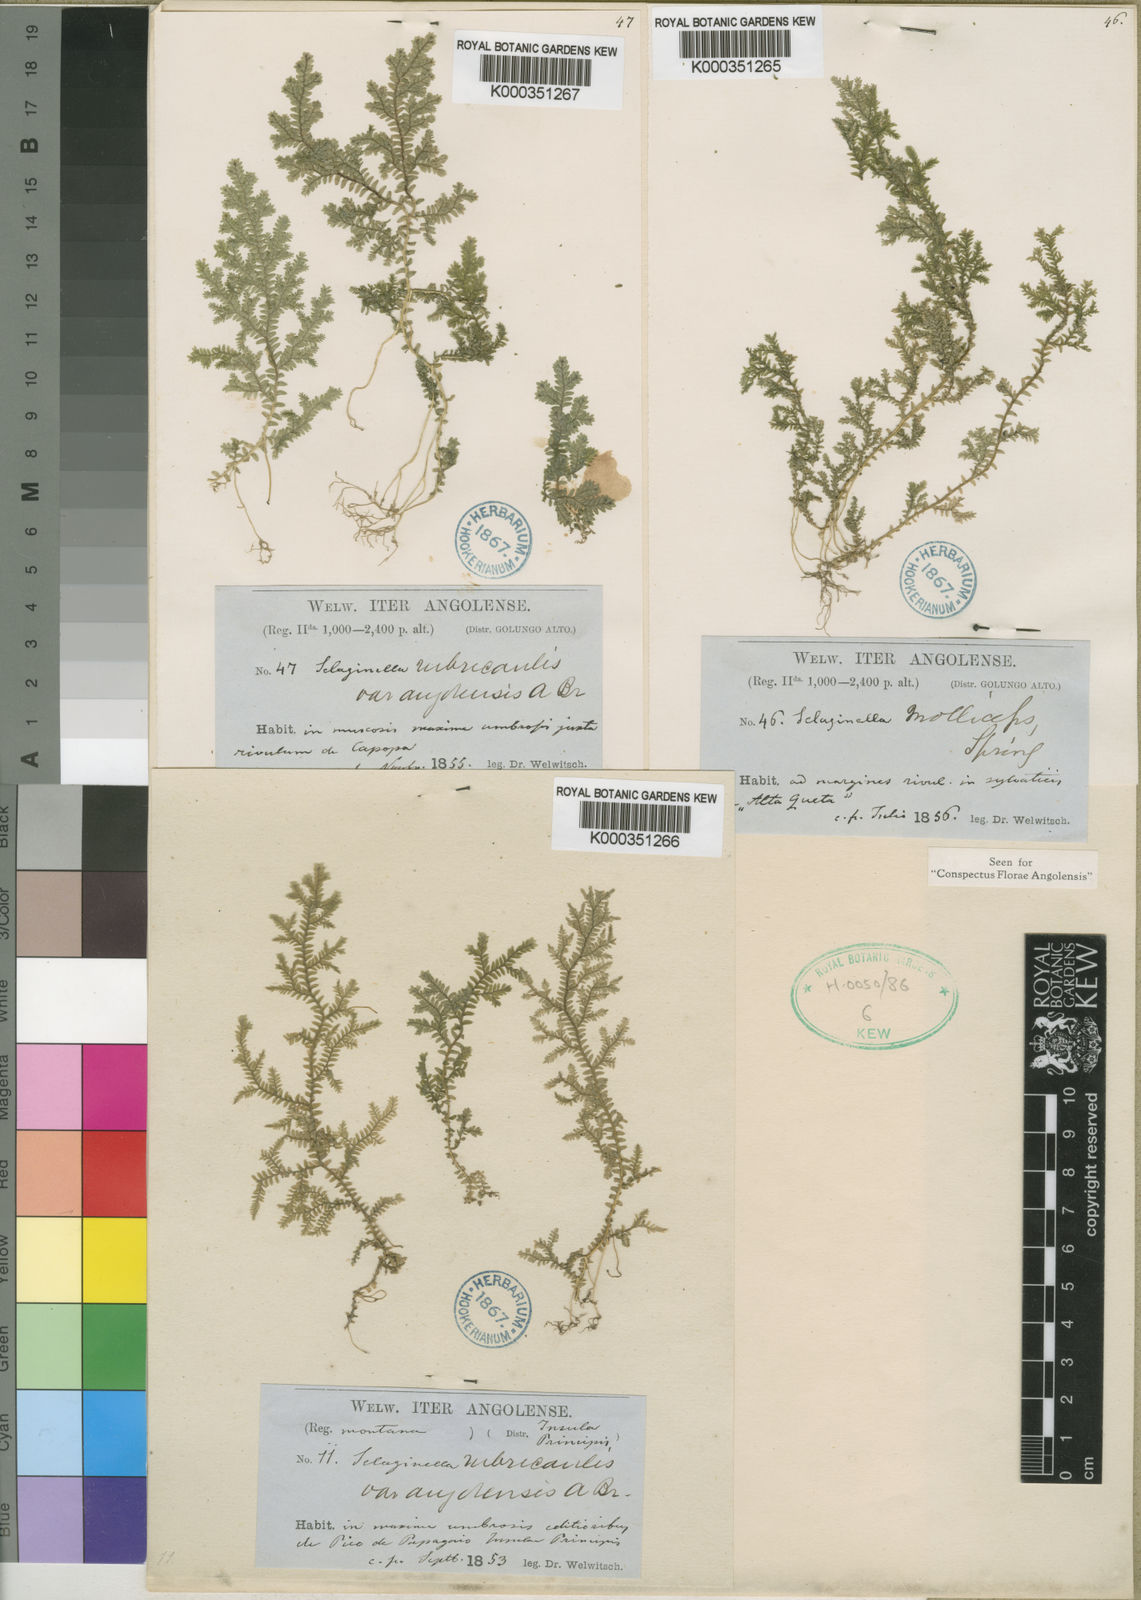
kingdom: Plantae
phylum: Tracheophyta
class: Lycopodiopsida
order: Selaginellales
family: Selaginellaceae
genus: Selaginella
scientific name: Selaginella molliceps
